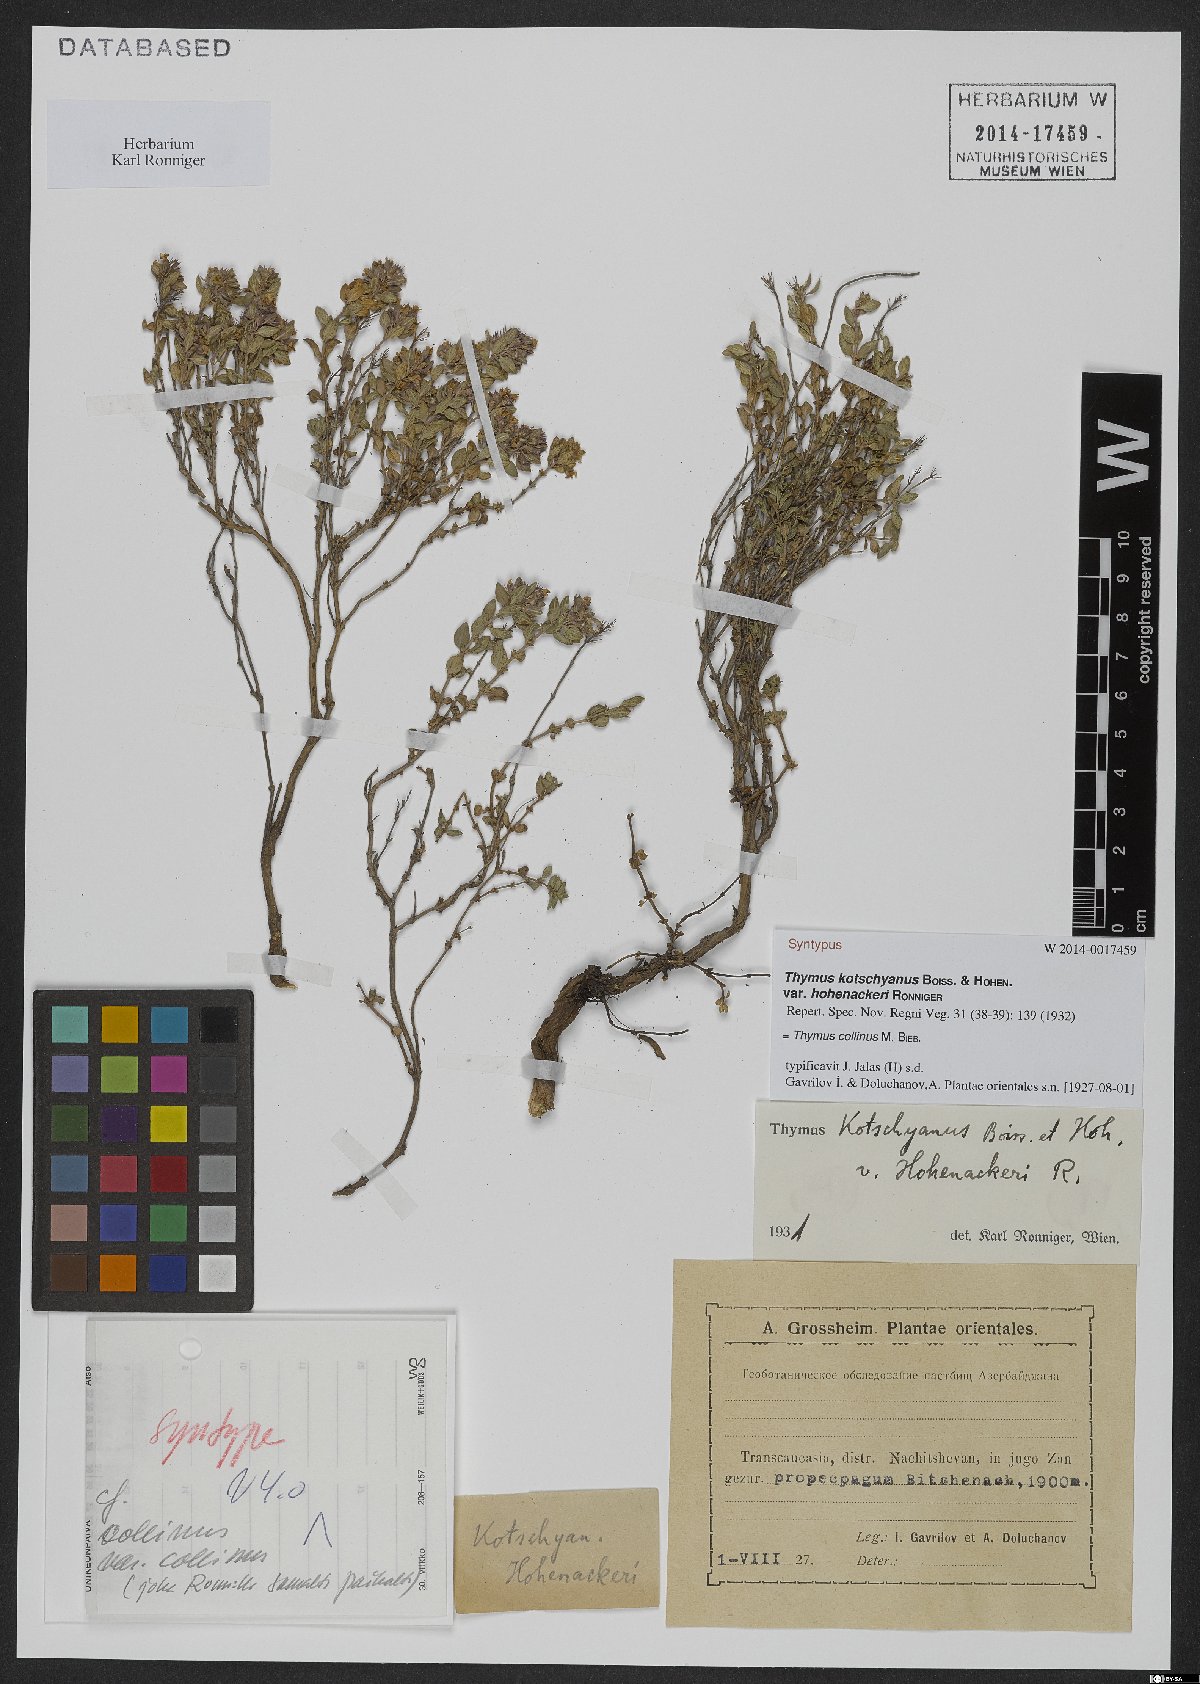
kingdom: Plantae
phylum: Tracheophyta
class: Magnoliopsida
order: Lamiales
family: Lamiaceae
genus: Thymus
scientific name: Thymus collinus
